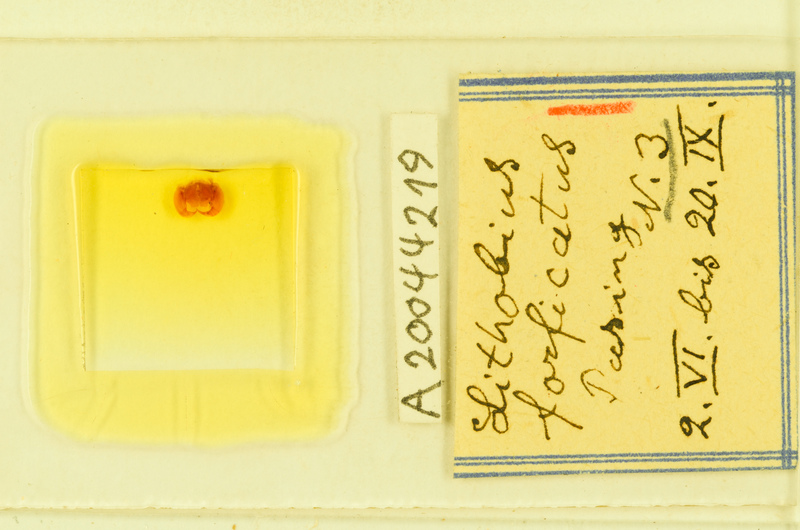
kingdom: Animalia
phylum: Arthropoda
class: Chilopoda
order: Lithobiomorpha
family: Lithobiidae
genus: Lithobius
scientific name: Lithobius forficatus
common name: Centipede
